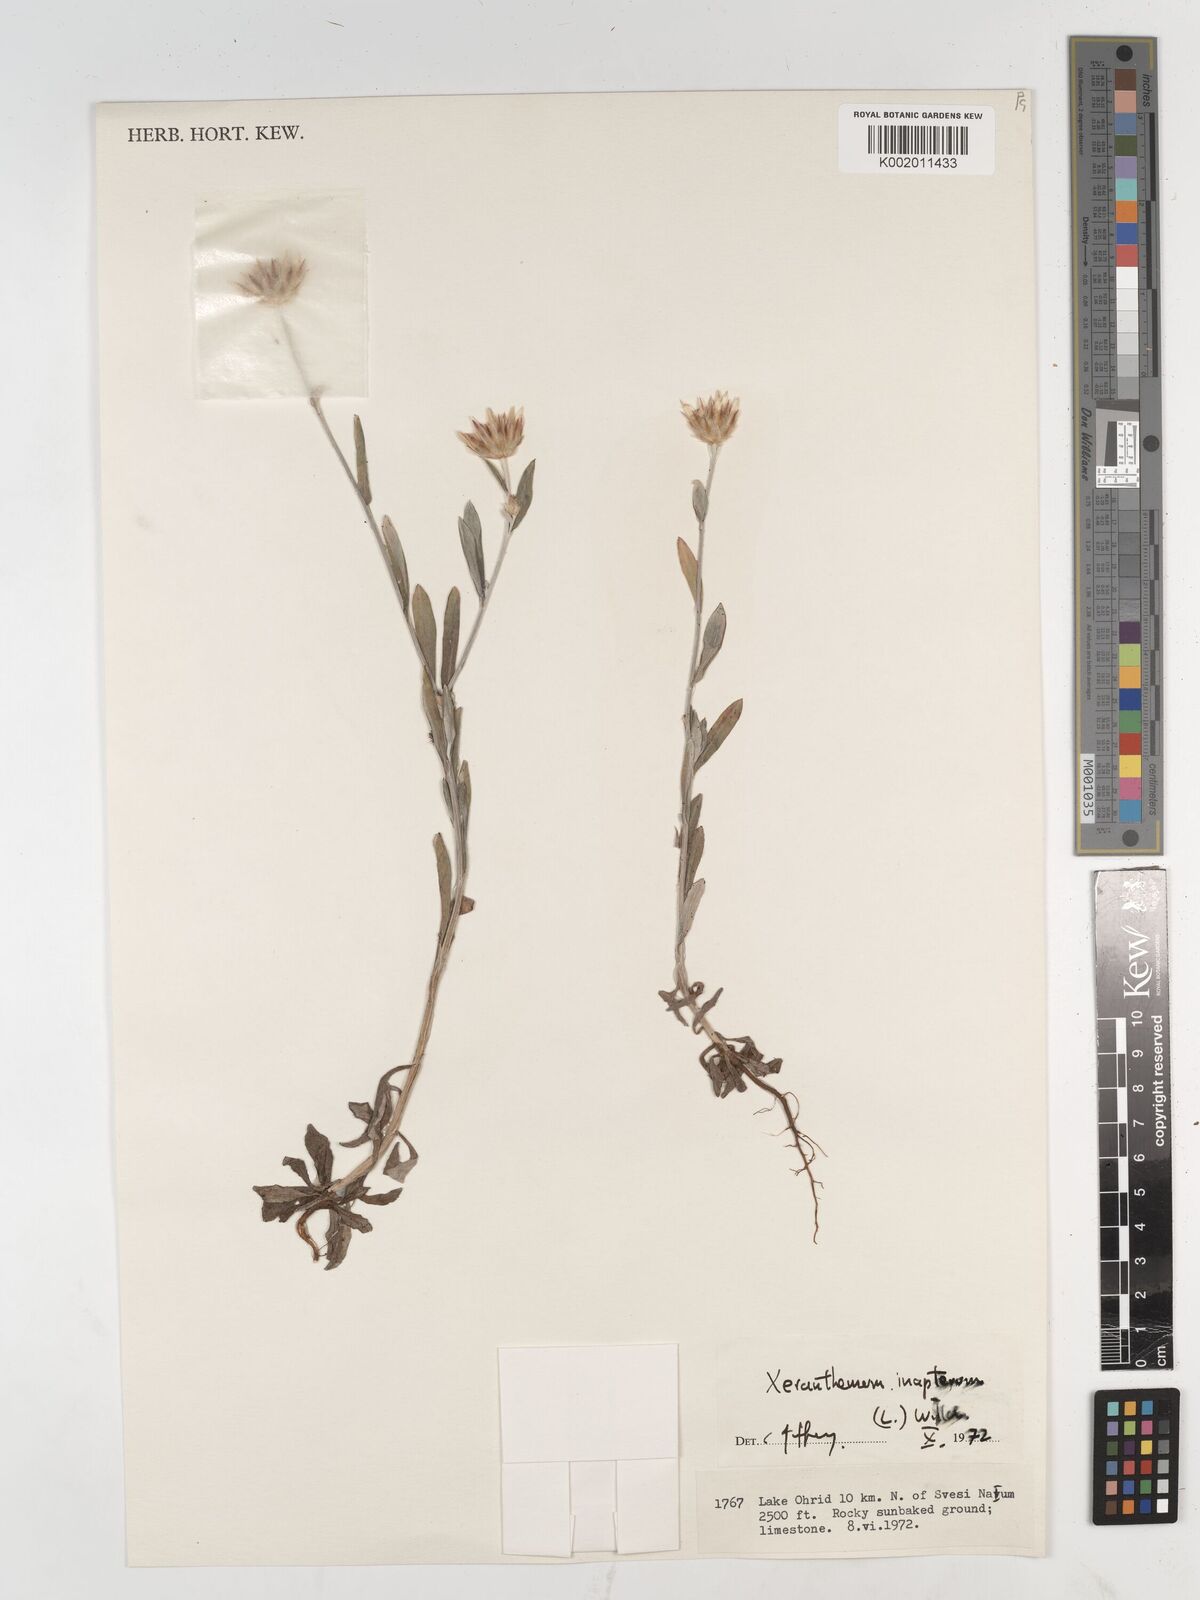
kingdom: Plantae
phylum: Tracheophyta
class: Magnoliopsida
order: Asterales
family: Asteraceae
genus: Xeranthemum
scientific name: Xeranthemum inapertum
